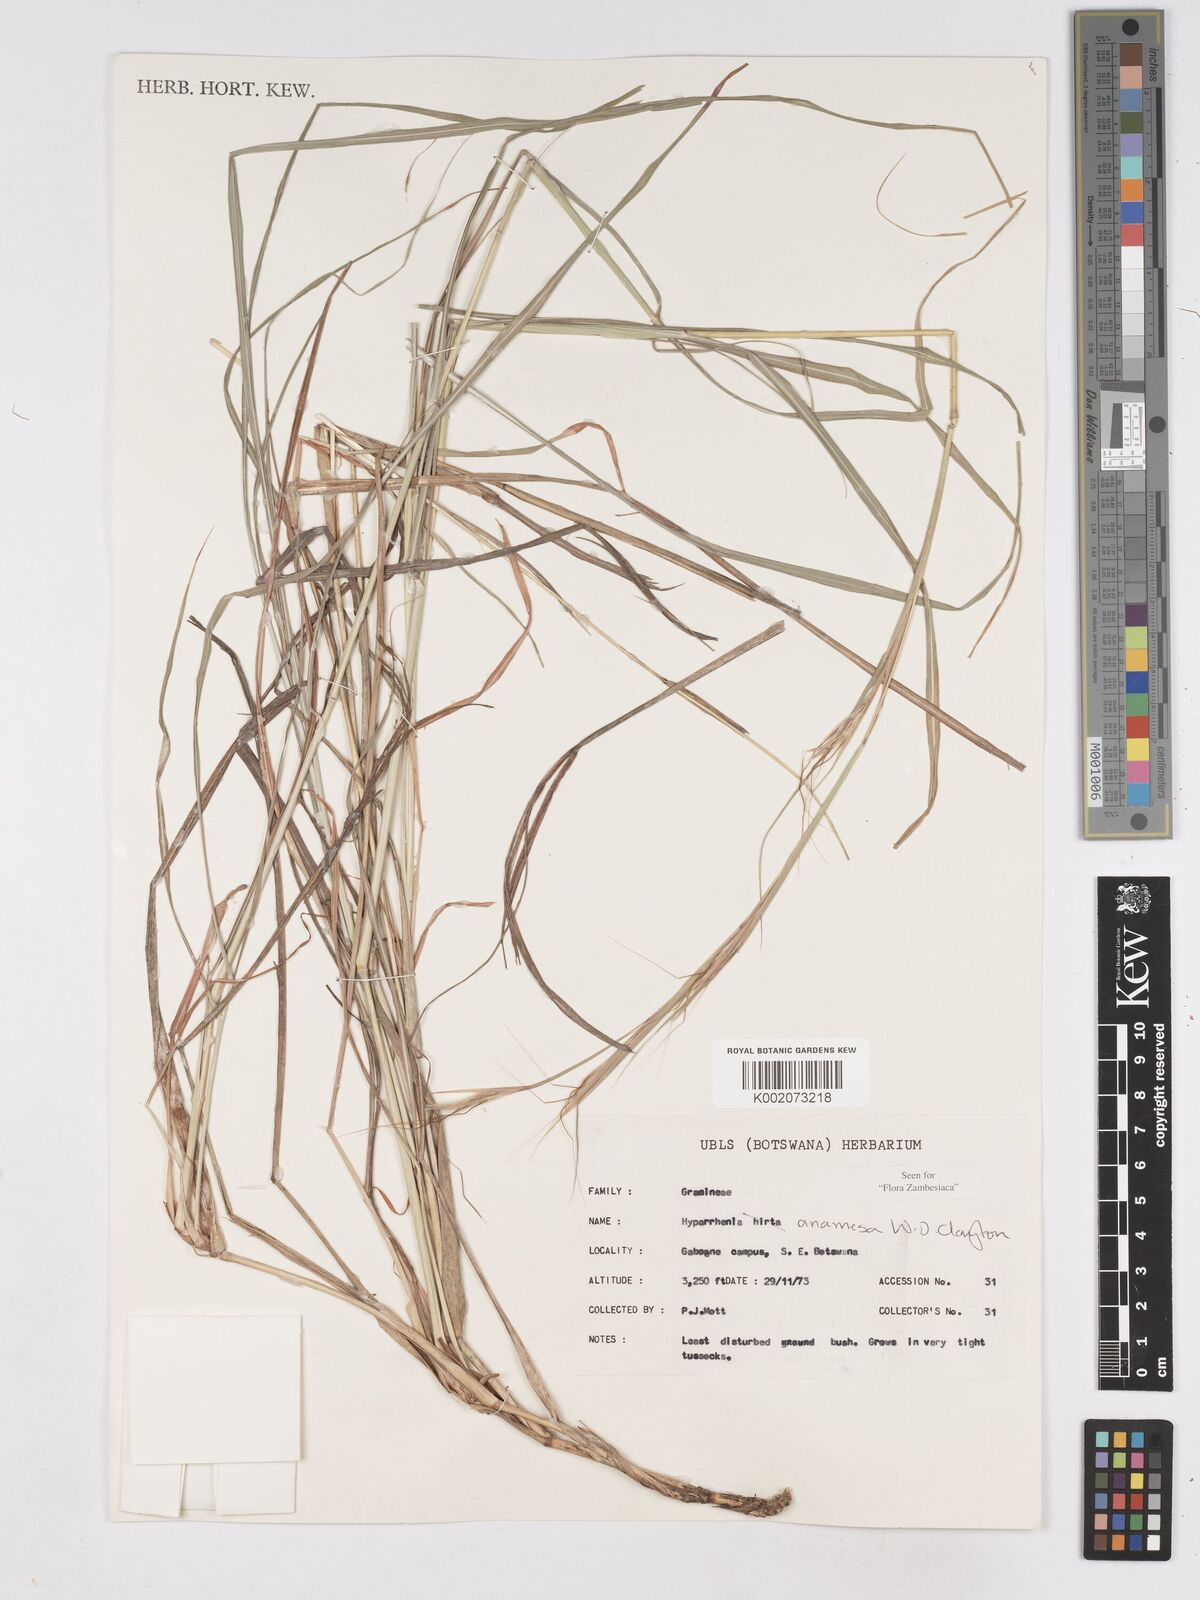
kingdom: Plantae
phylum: Tracheophyta
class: Liliopsida
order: Poales
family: Poaceae
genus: Hyparrhenia
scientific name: Hyparrhenia anamesa
